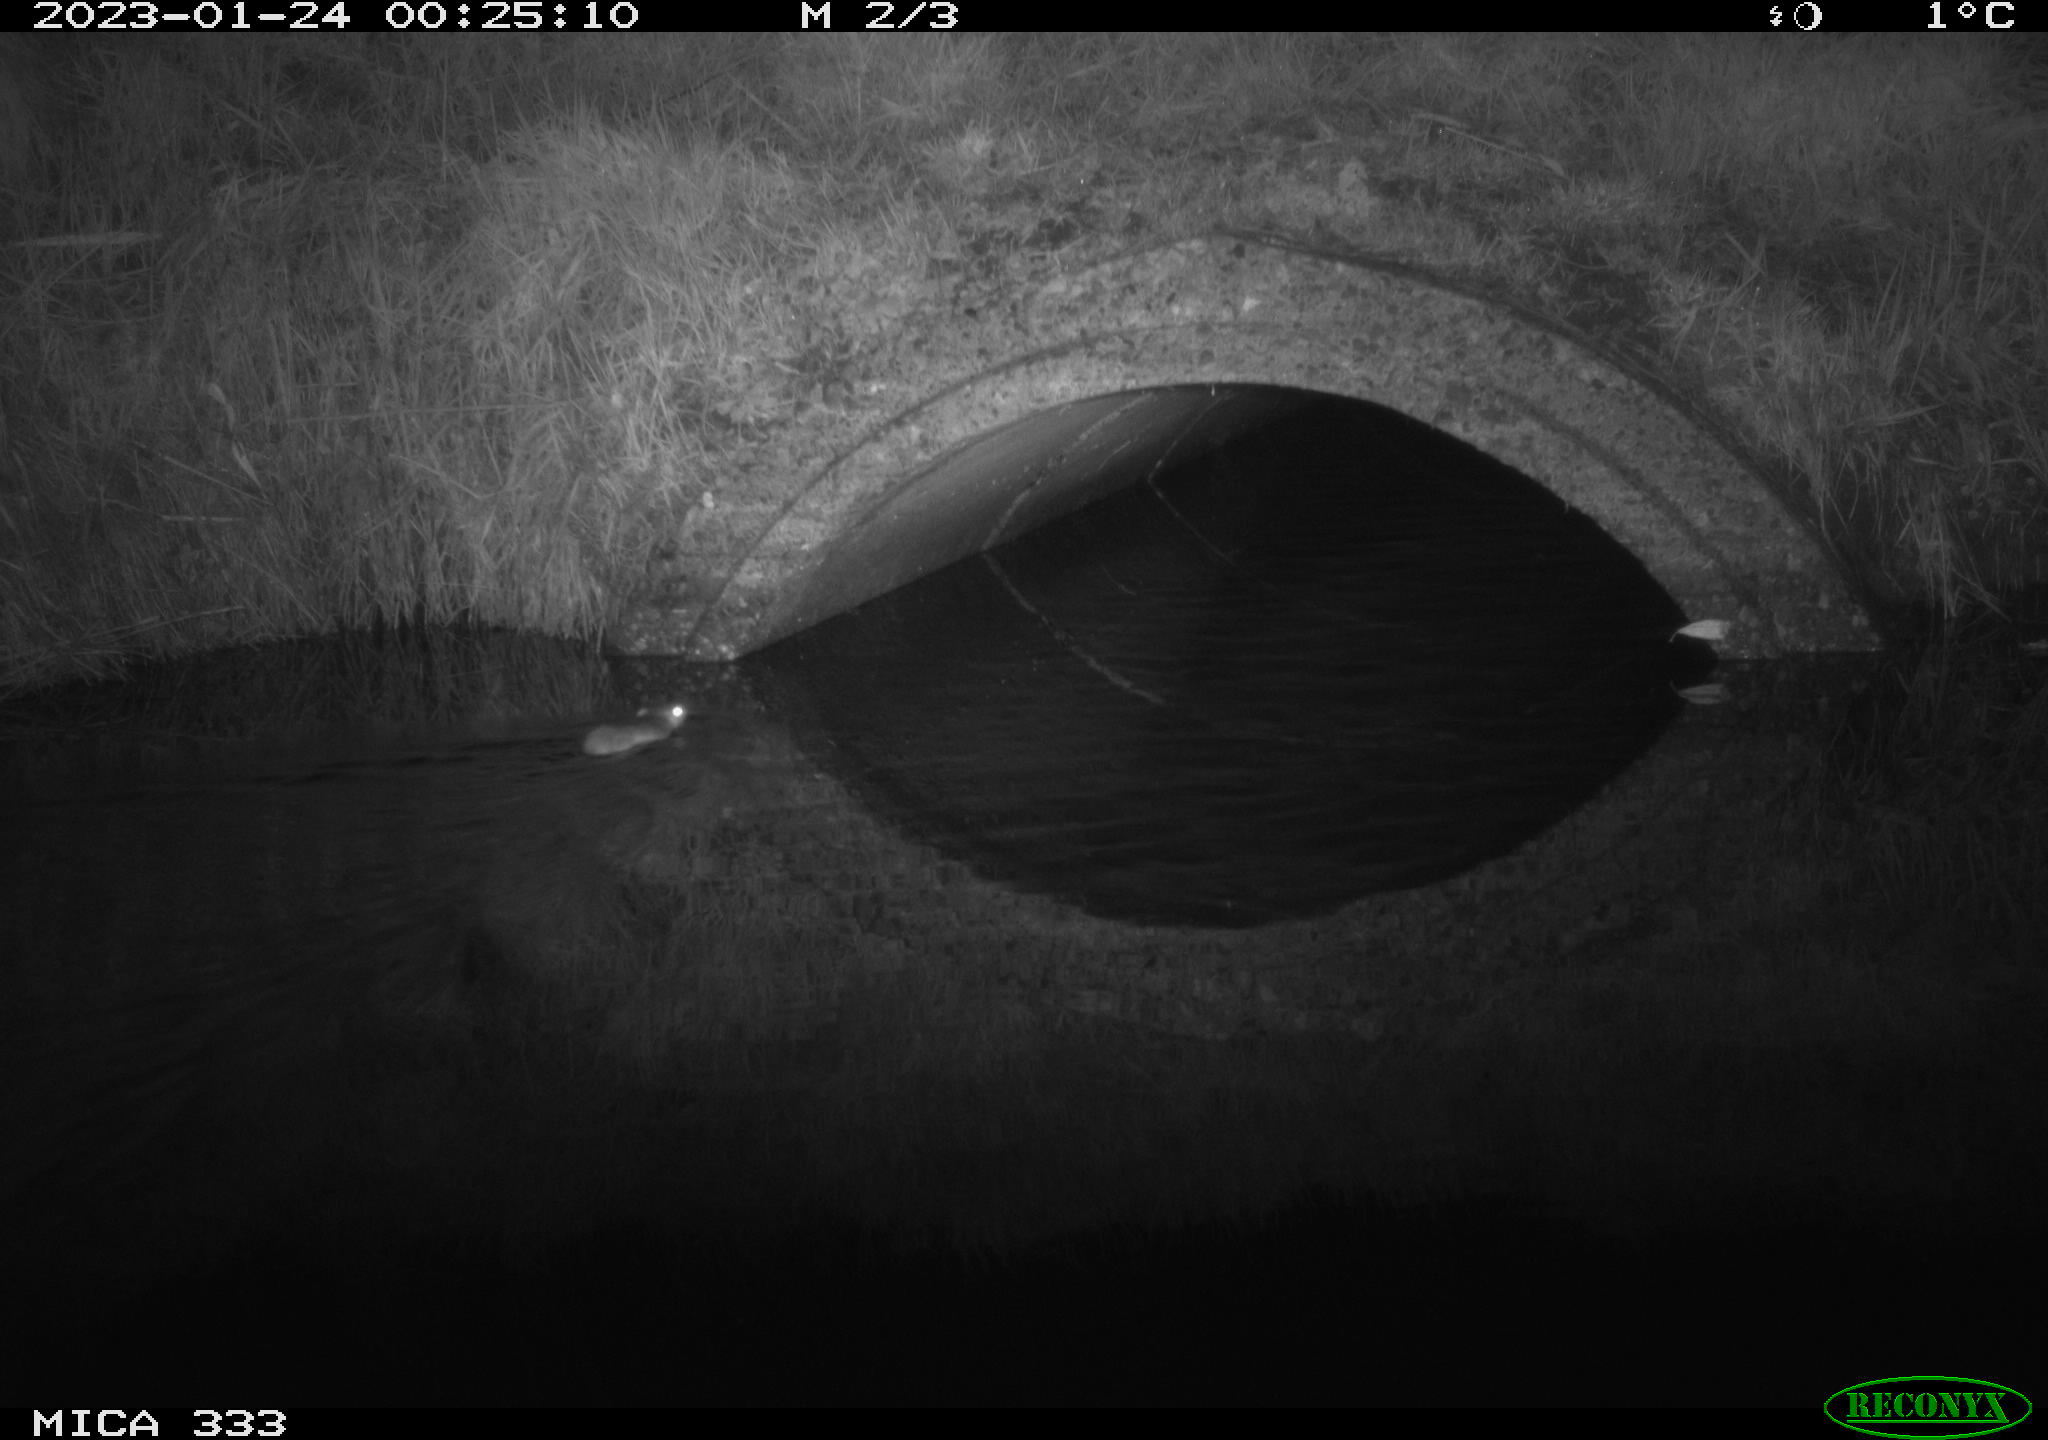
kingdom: Animalia
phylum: Chordata
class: Mammalia
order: Rodentia
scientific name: Rodentia
